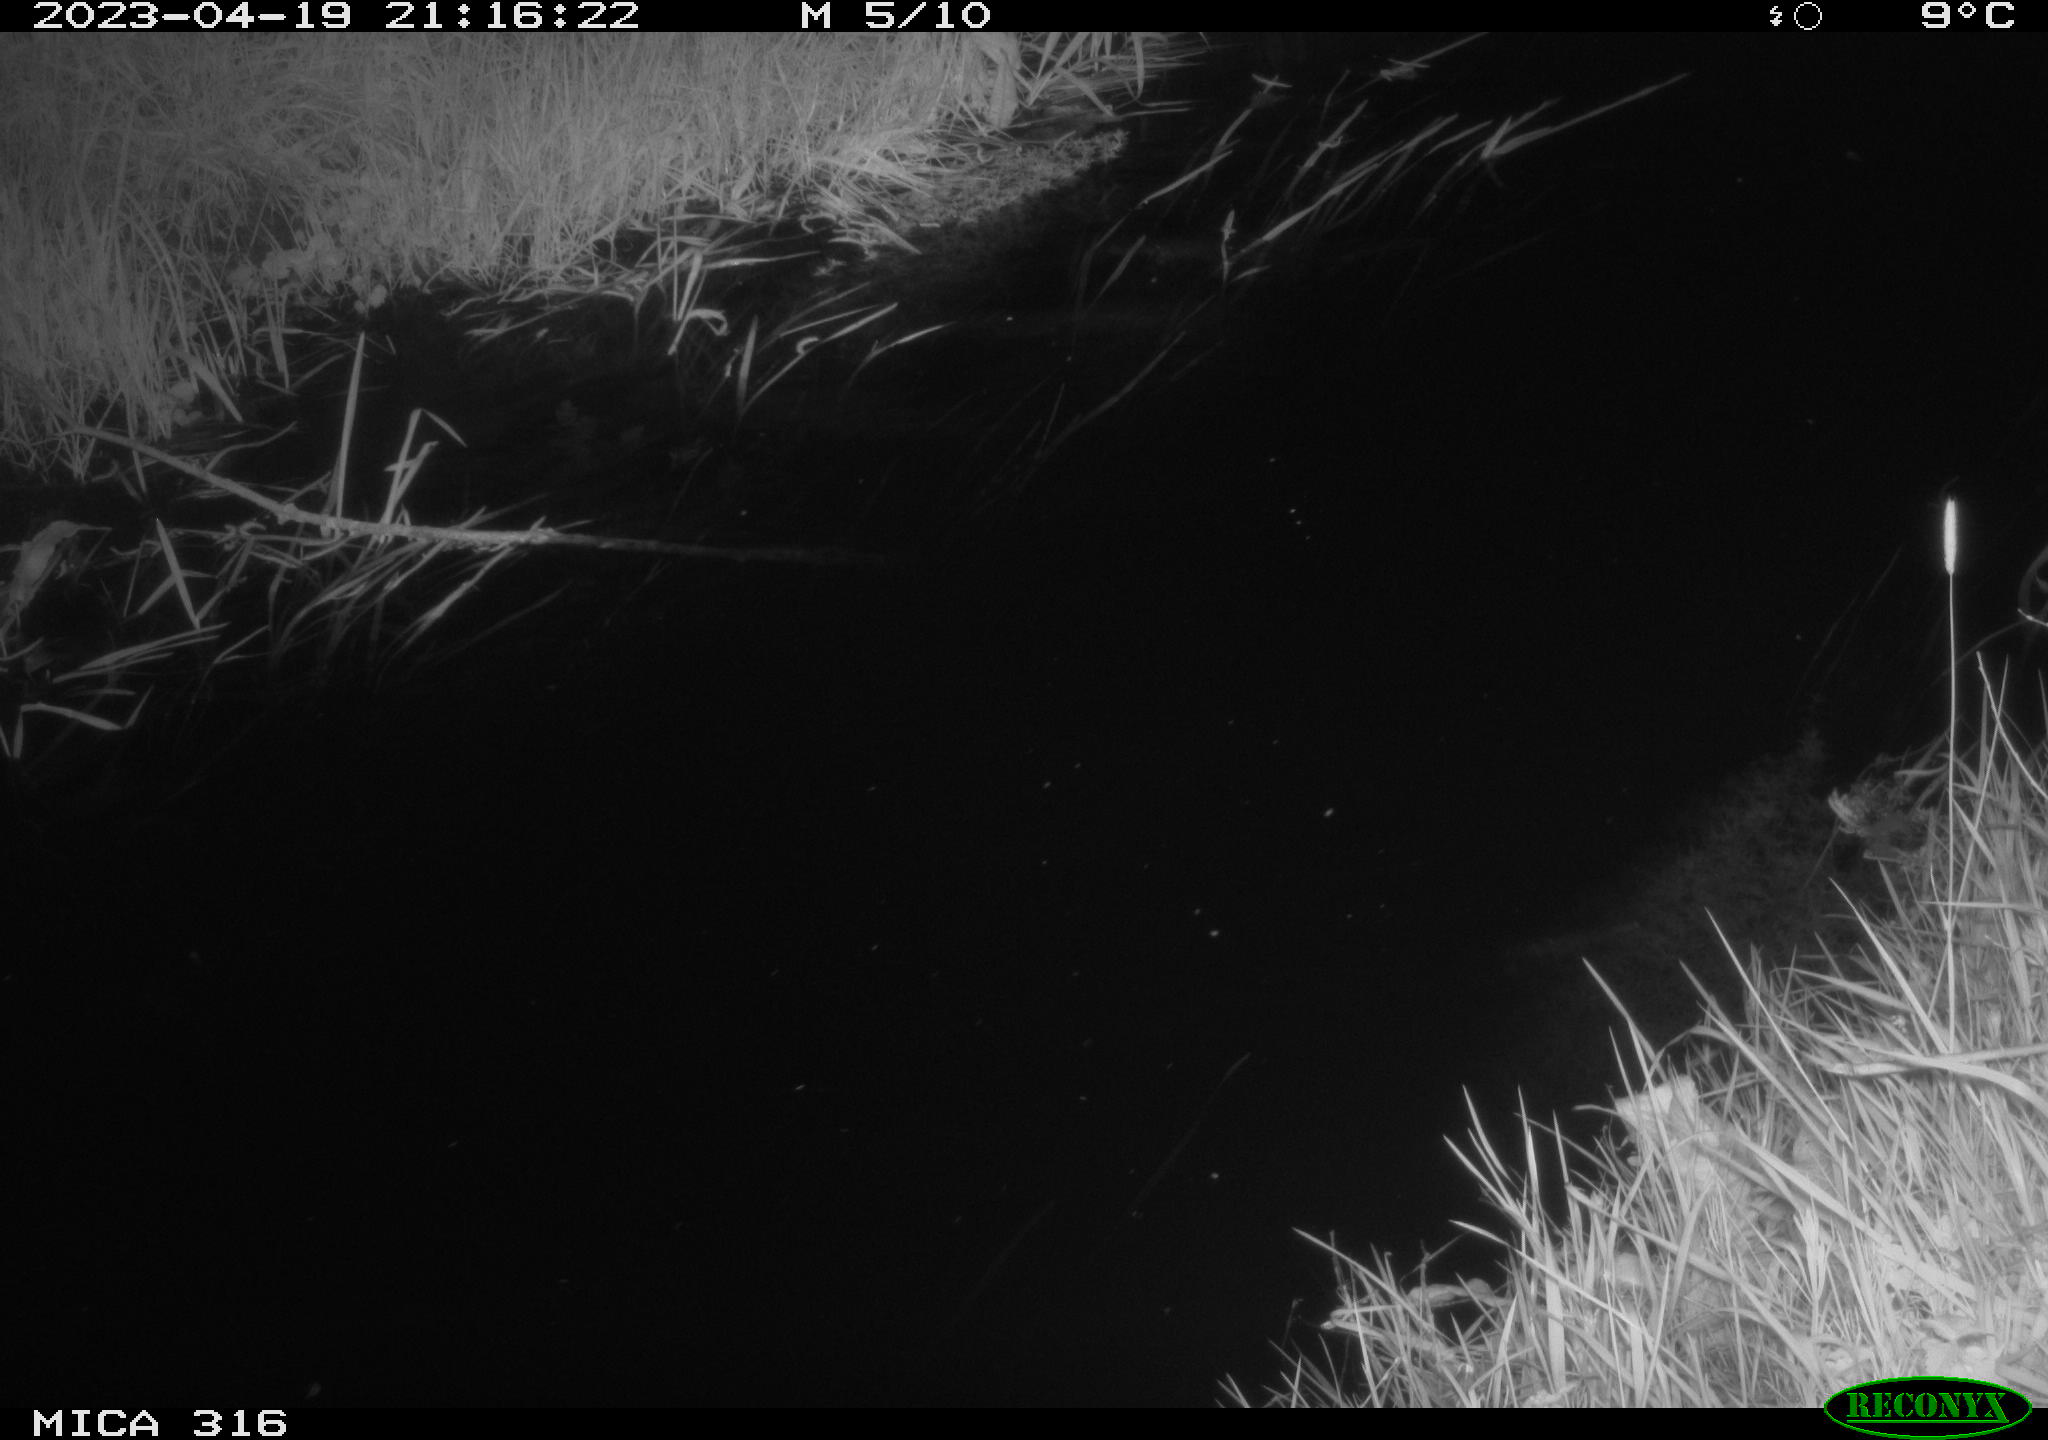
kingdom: Animalia
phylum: Chordata
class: Aves
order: Anseriformes
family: Anatidae
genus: Anas
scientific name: Anas
